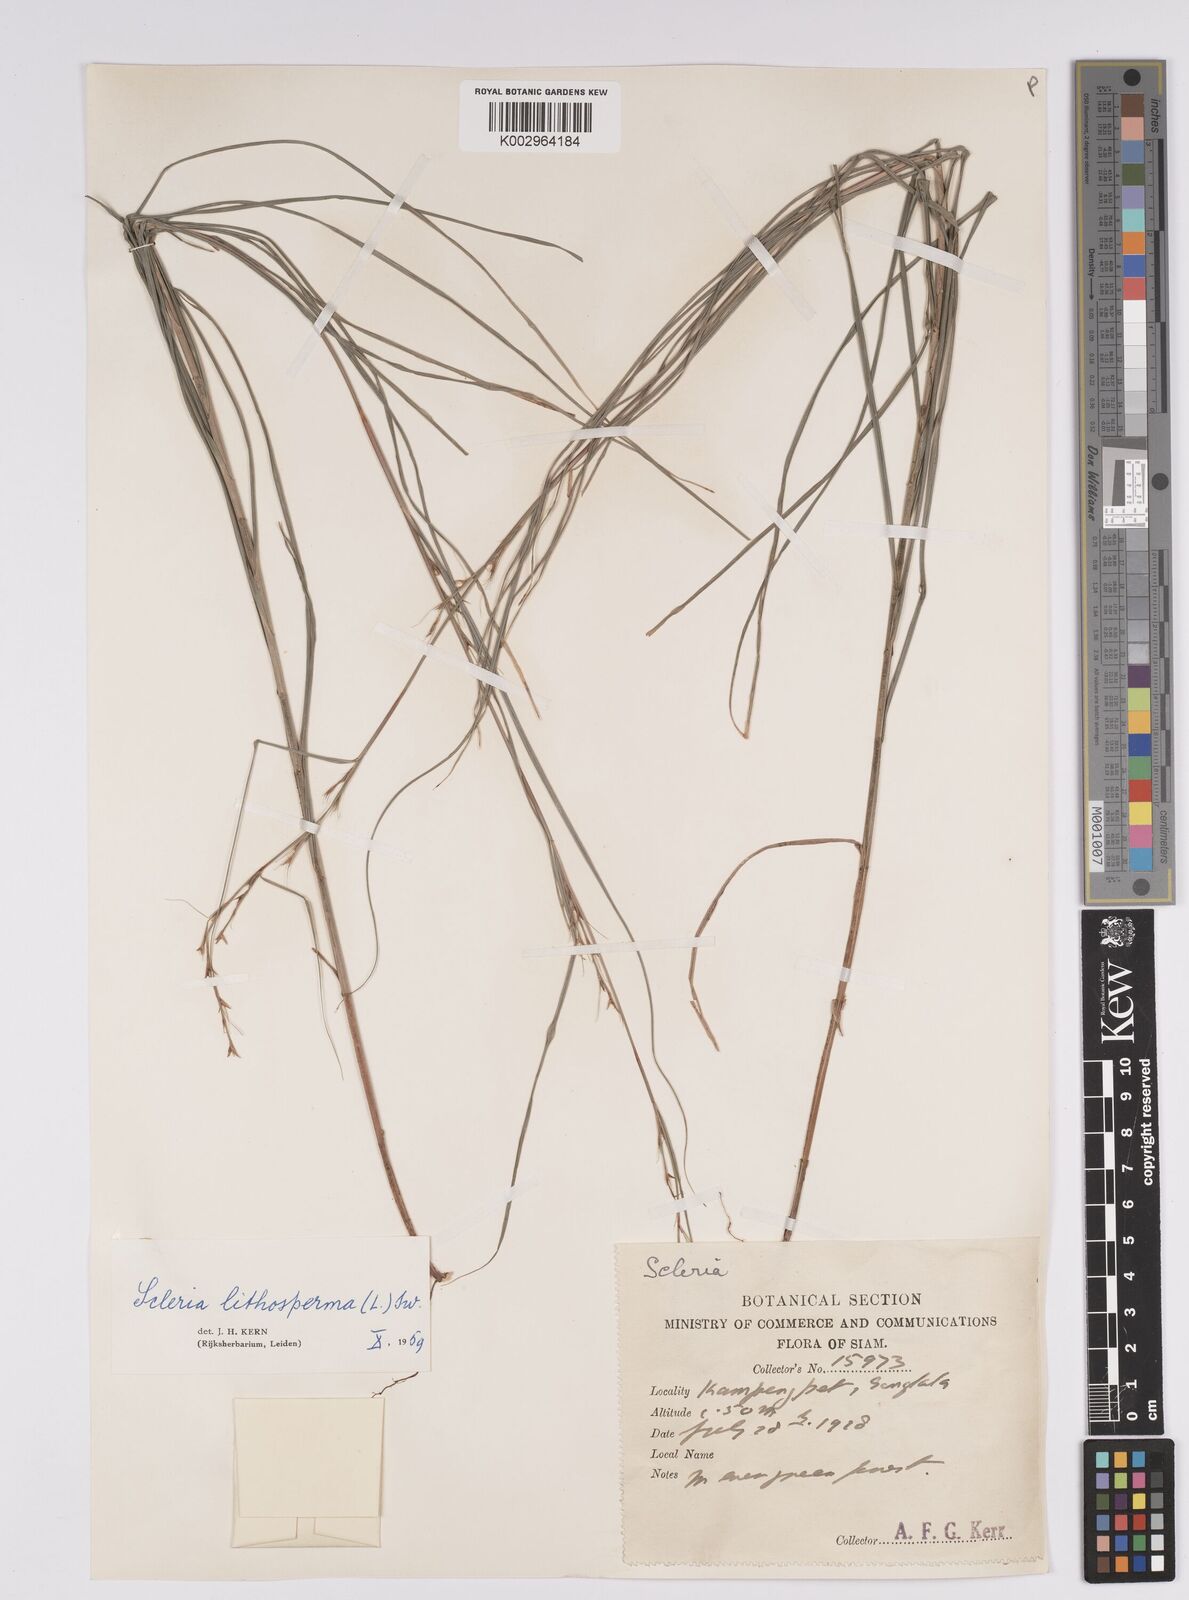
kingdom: Plantae
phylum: Tracheophyta
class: Liliopsida
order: Poales
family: Cyperaceae
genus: Scleria
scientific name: Scleria lithosperma
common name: Florida keys nut-rush
